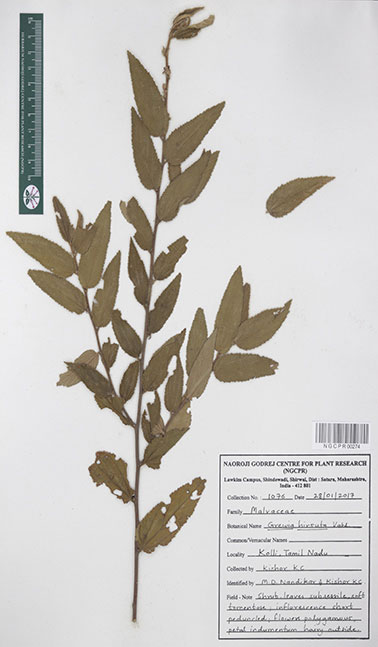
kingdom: Plantae
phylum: Tracheophyta
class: Magnoliopsida
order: Malvales
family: Malvaceae
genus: Grewia
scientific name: Grewia hirsuta
